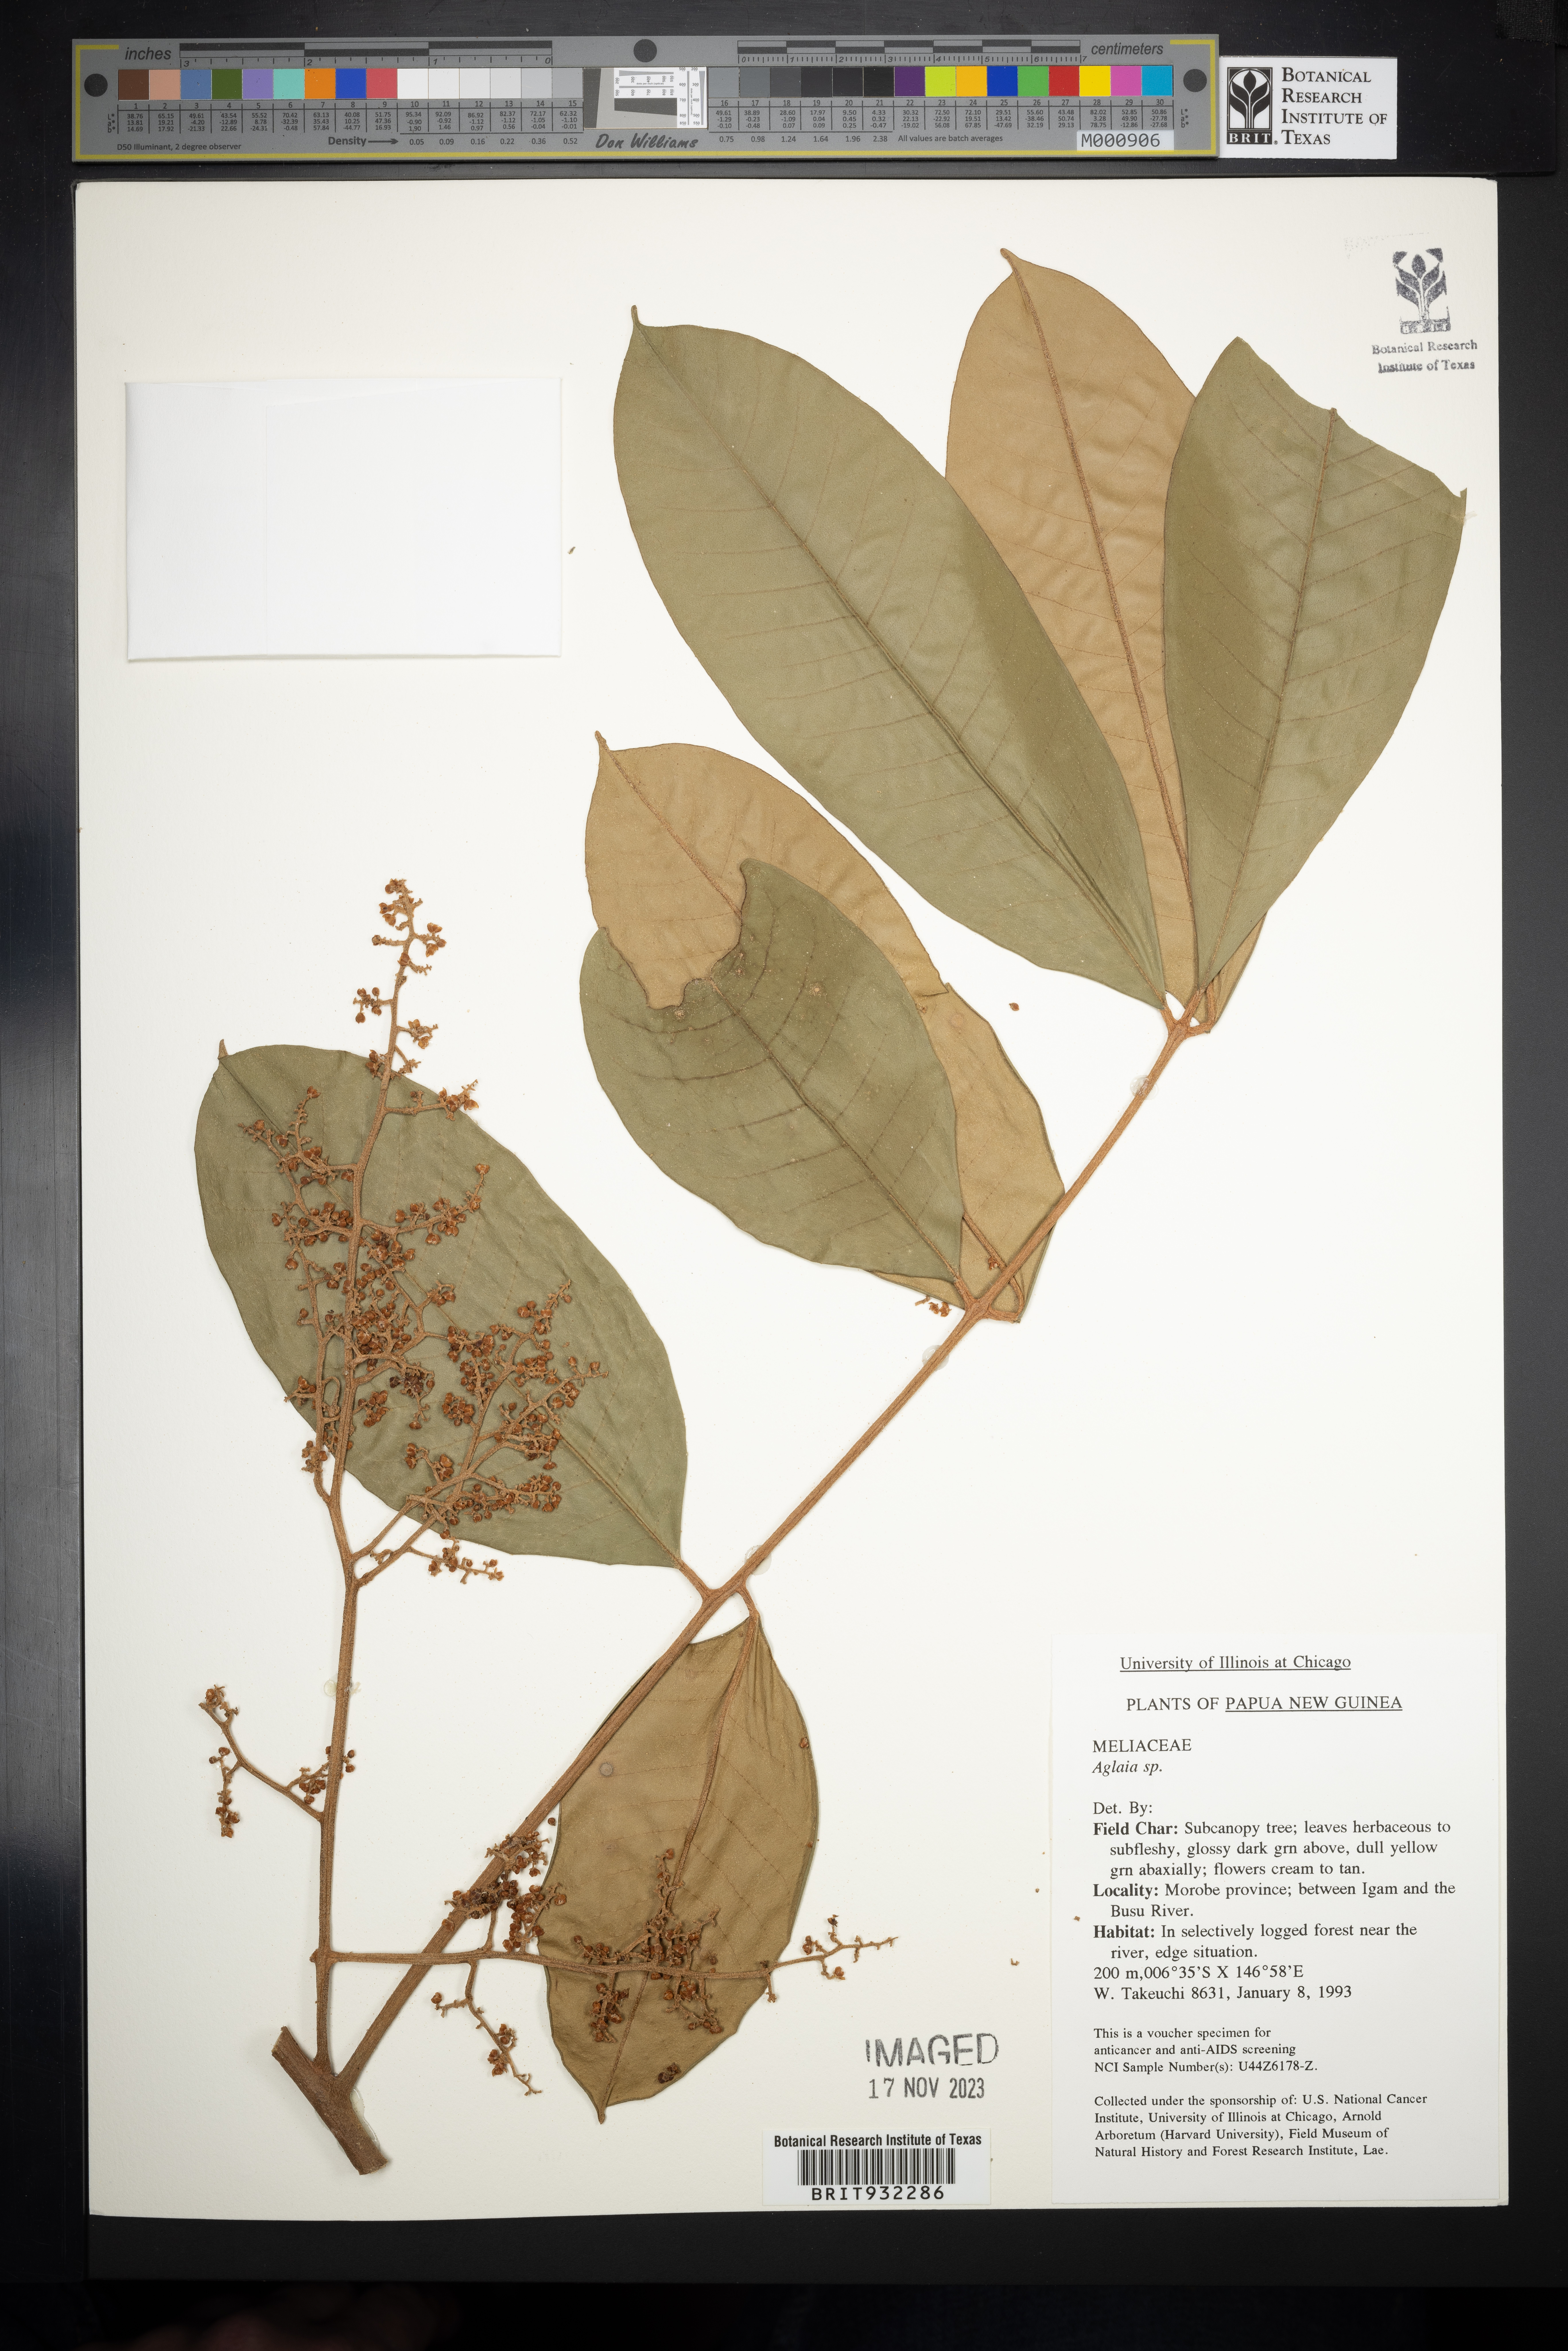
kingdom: Plantae
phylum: Tracheophyta
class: Magnoliopsida
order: Sapindales
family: Meliaceae
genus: Aglaia
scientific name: Aglaia
